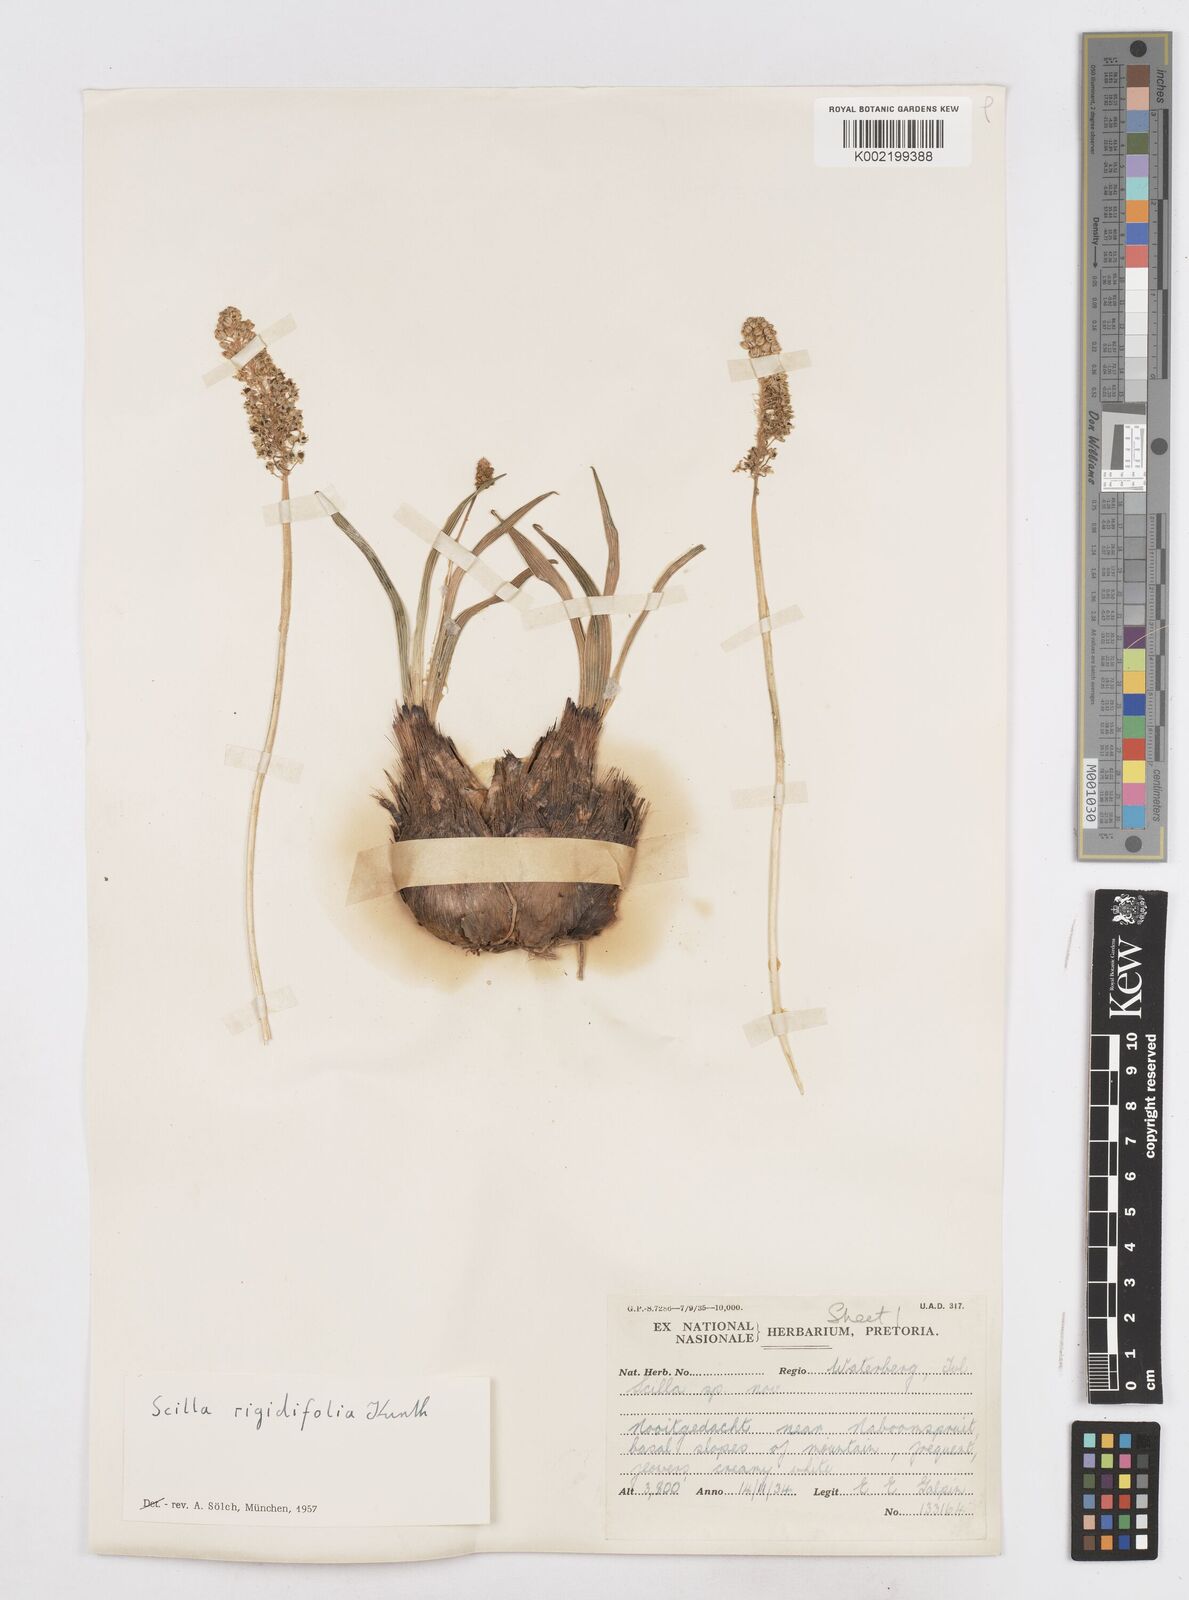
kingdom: Plantae
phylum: Tracheophyta
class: Liliopsida
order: Asparagales
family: Asparagaceae
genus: Schizocarphus
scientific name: Schizocarphus nervosus
